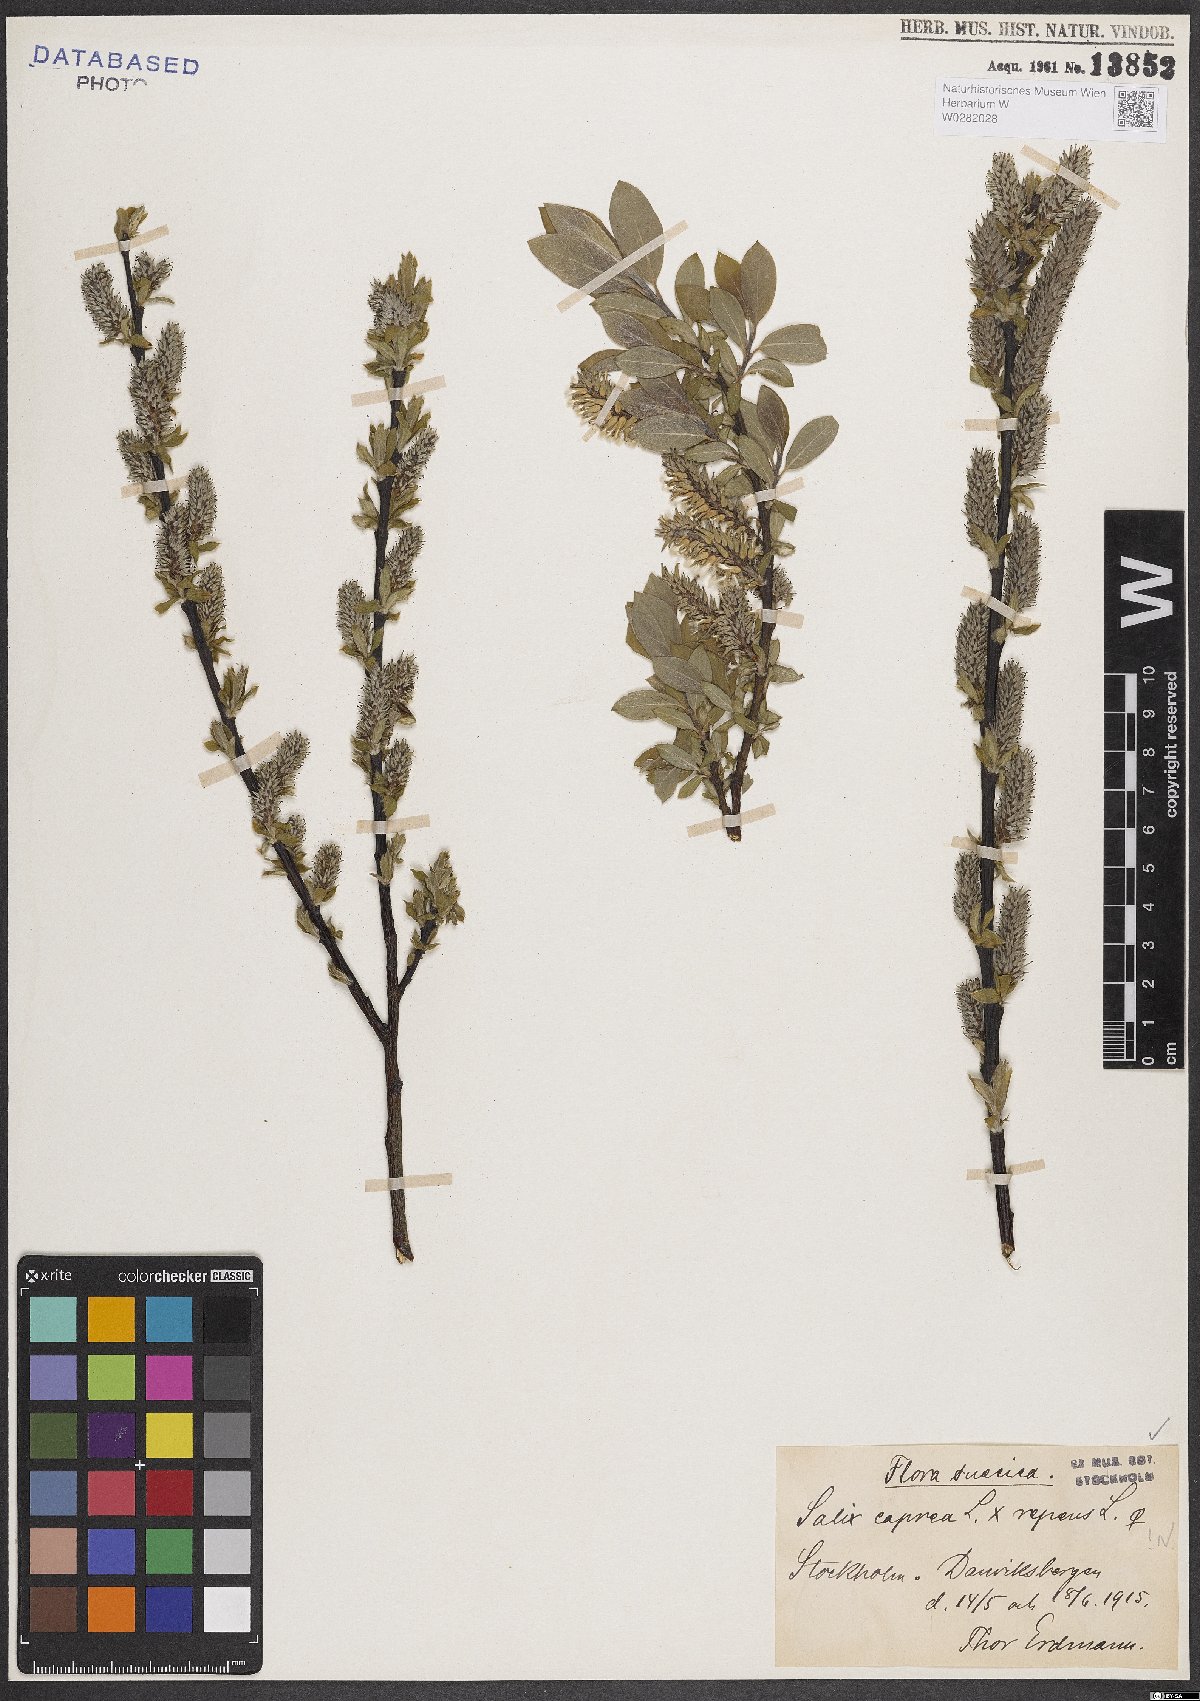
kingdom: Plantae
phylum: Tracheophyta
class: Magnoliopsida
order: Malpighiales
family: Salicaceae
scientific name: Salicaceae
